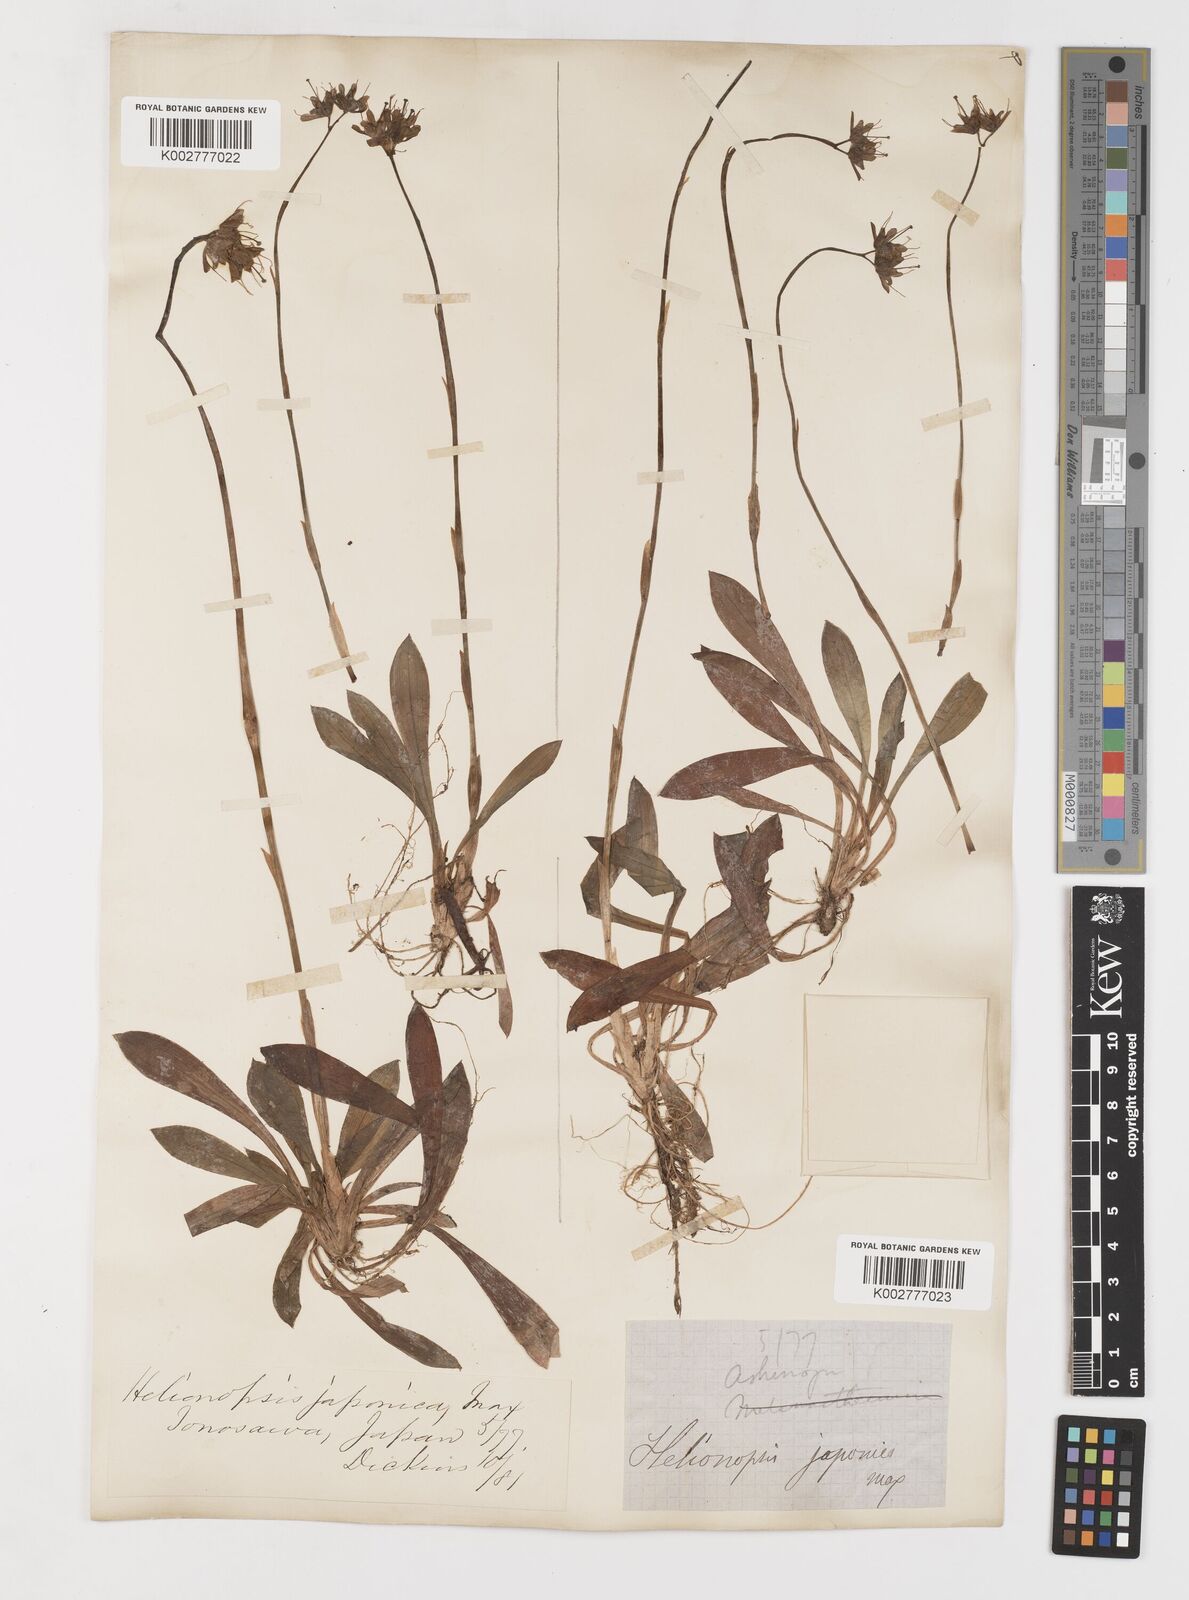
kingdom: Plantae
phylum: Tracheophyta
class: Liliopsida
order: Liliales
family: Melanthiaceae
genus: Helonias
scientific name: Helonias orientalis
